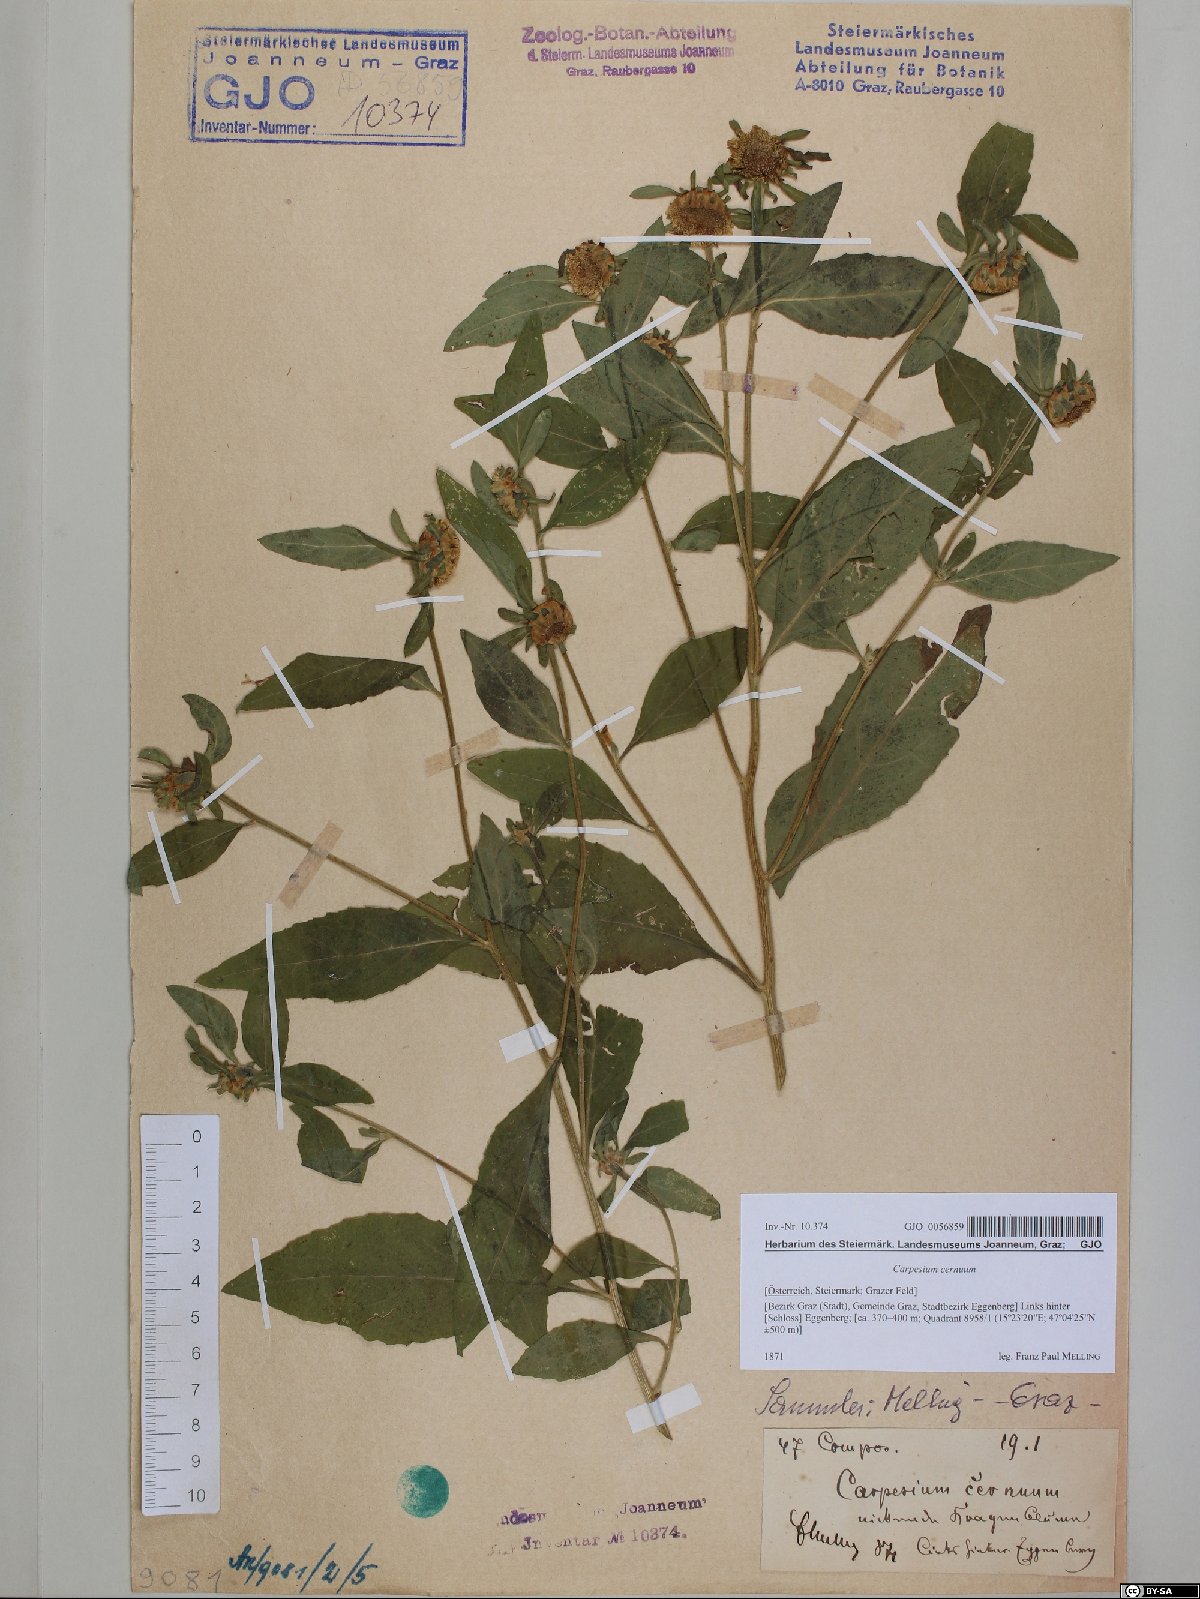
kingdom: Plantae
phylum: Tracheophyta
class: Magnoliopsida
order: Asterales
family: Asteraceae
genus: Carpesium
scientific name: Carpesium cernuum
